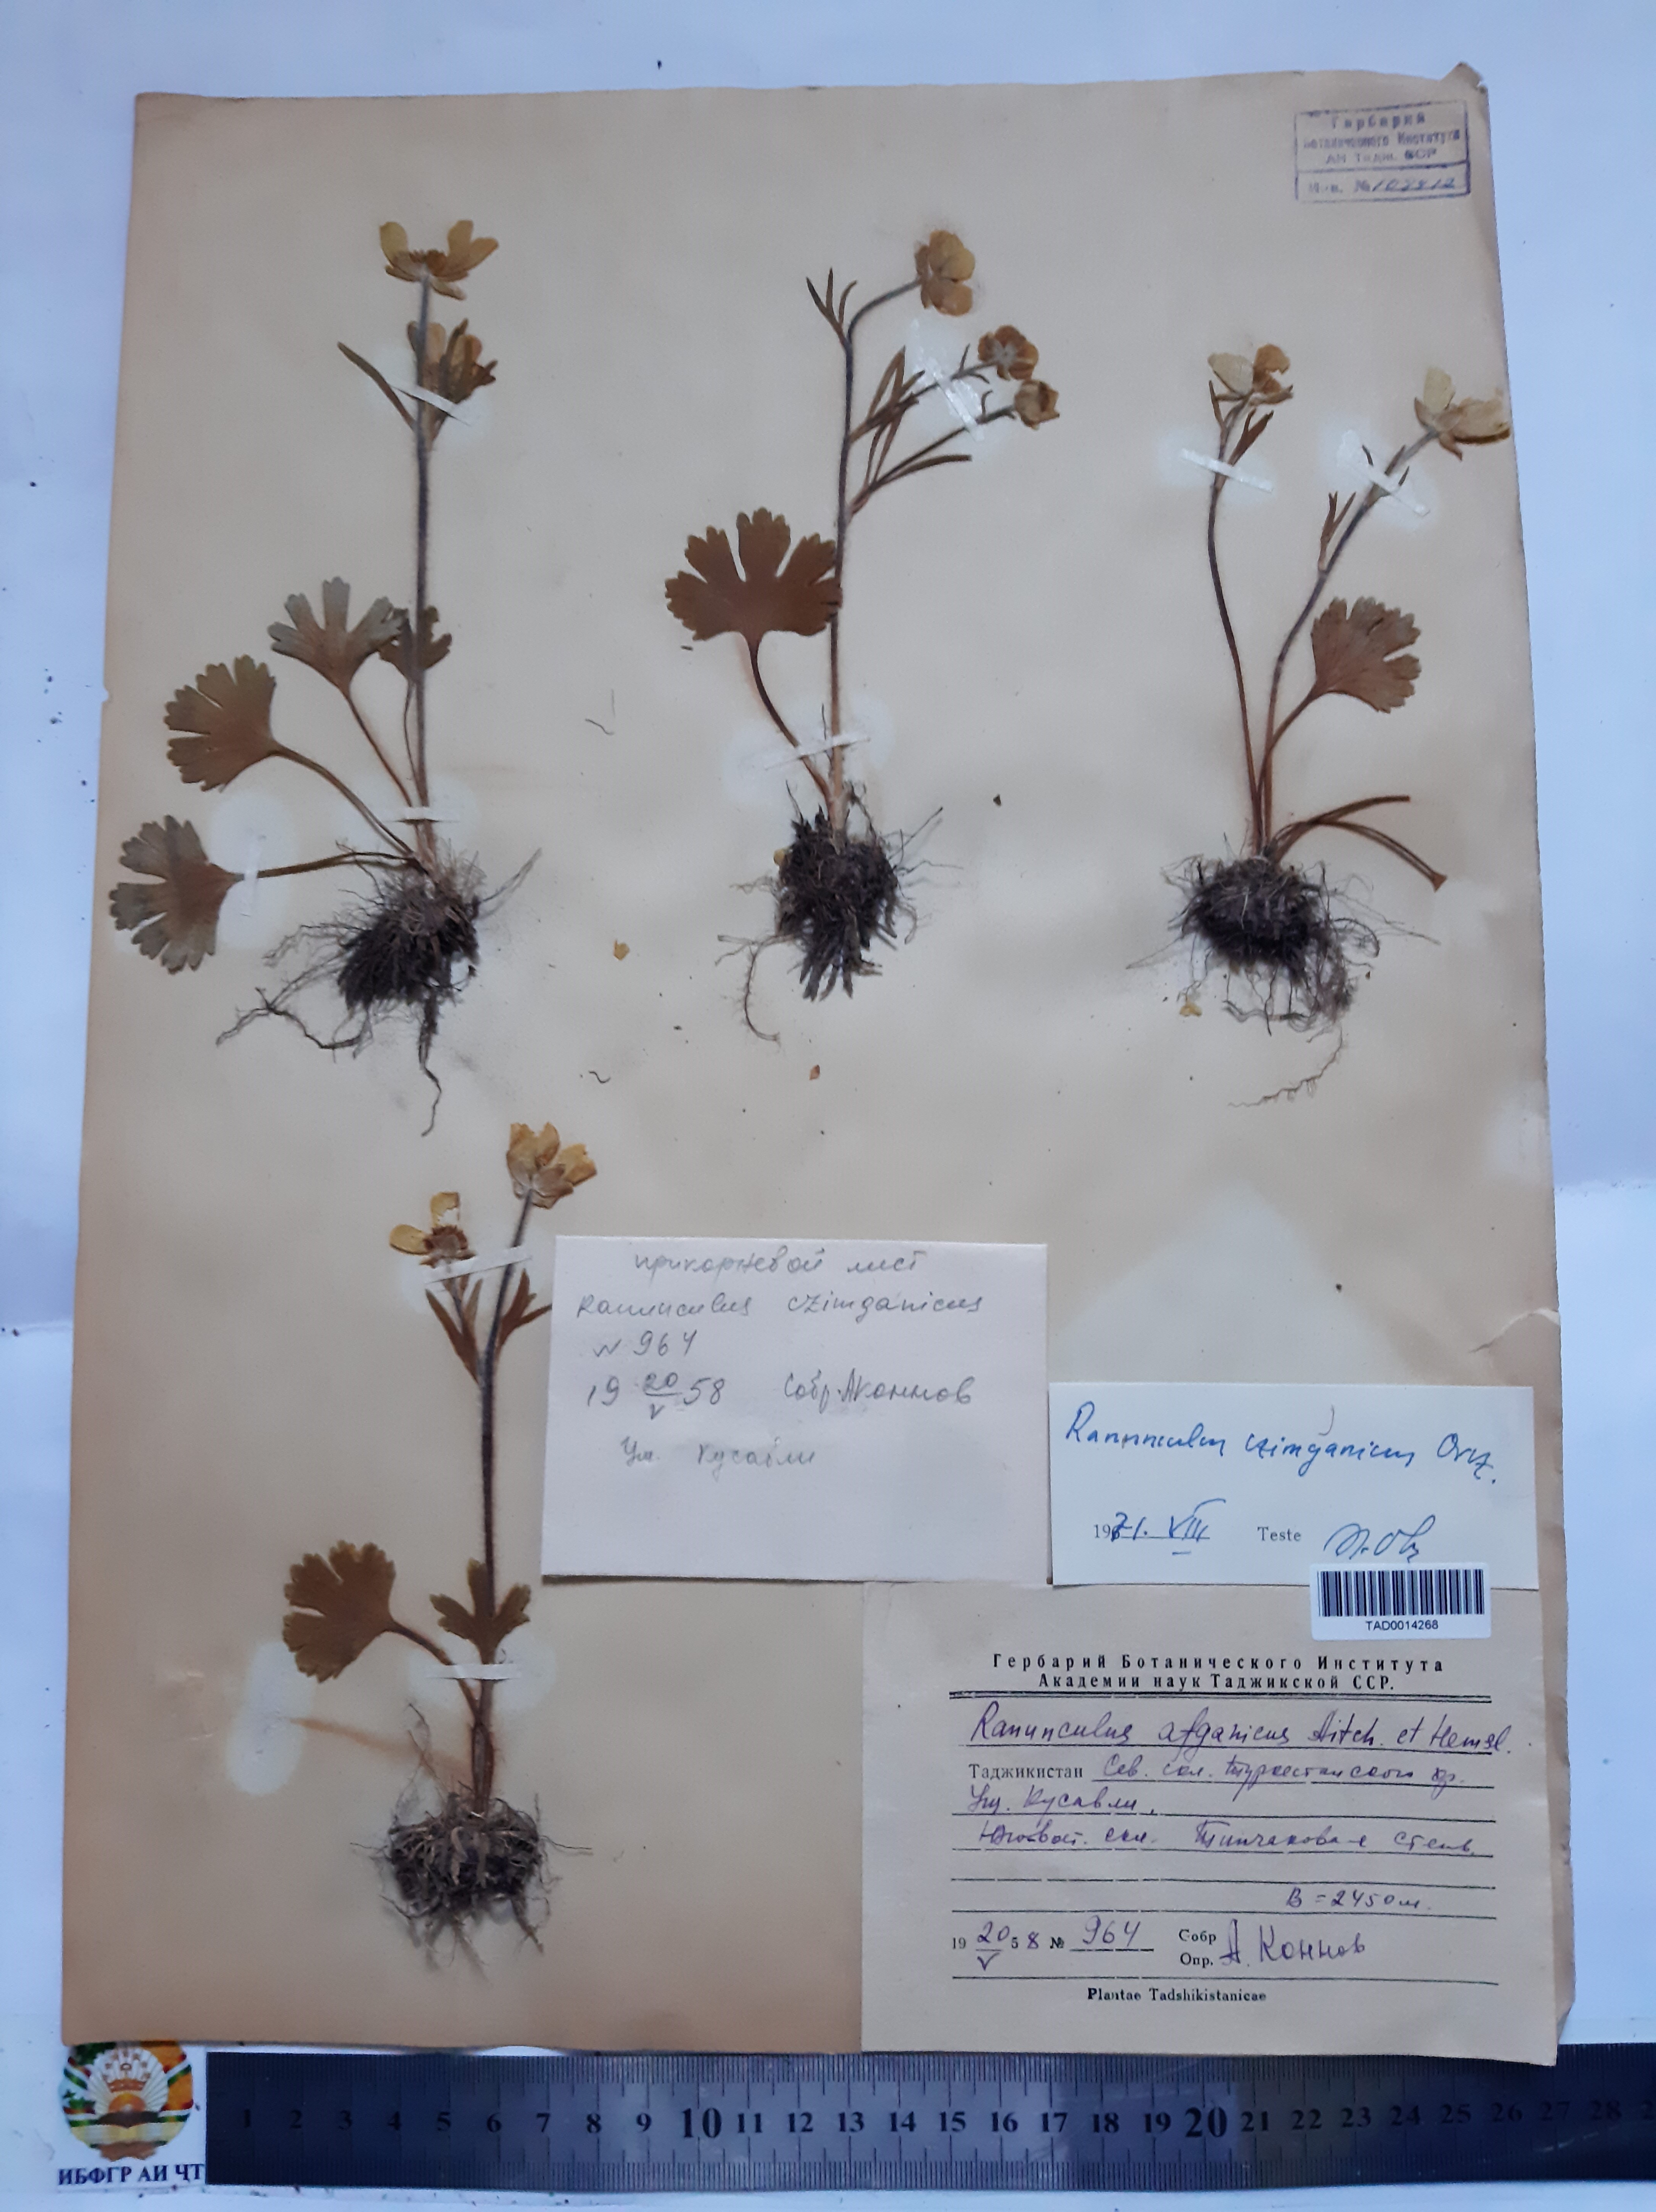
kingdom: Plantae
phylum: Tracheophyta
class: Magnoliopsida
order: Ranunculales
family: Ranunculaceae
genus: Ranunculus
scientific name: Ranunculus czimganicus
